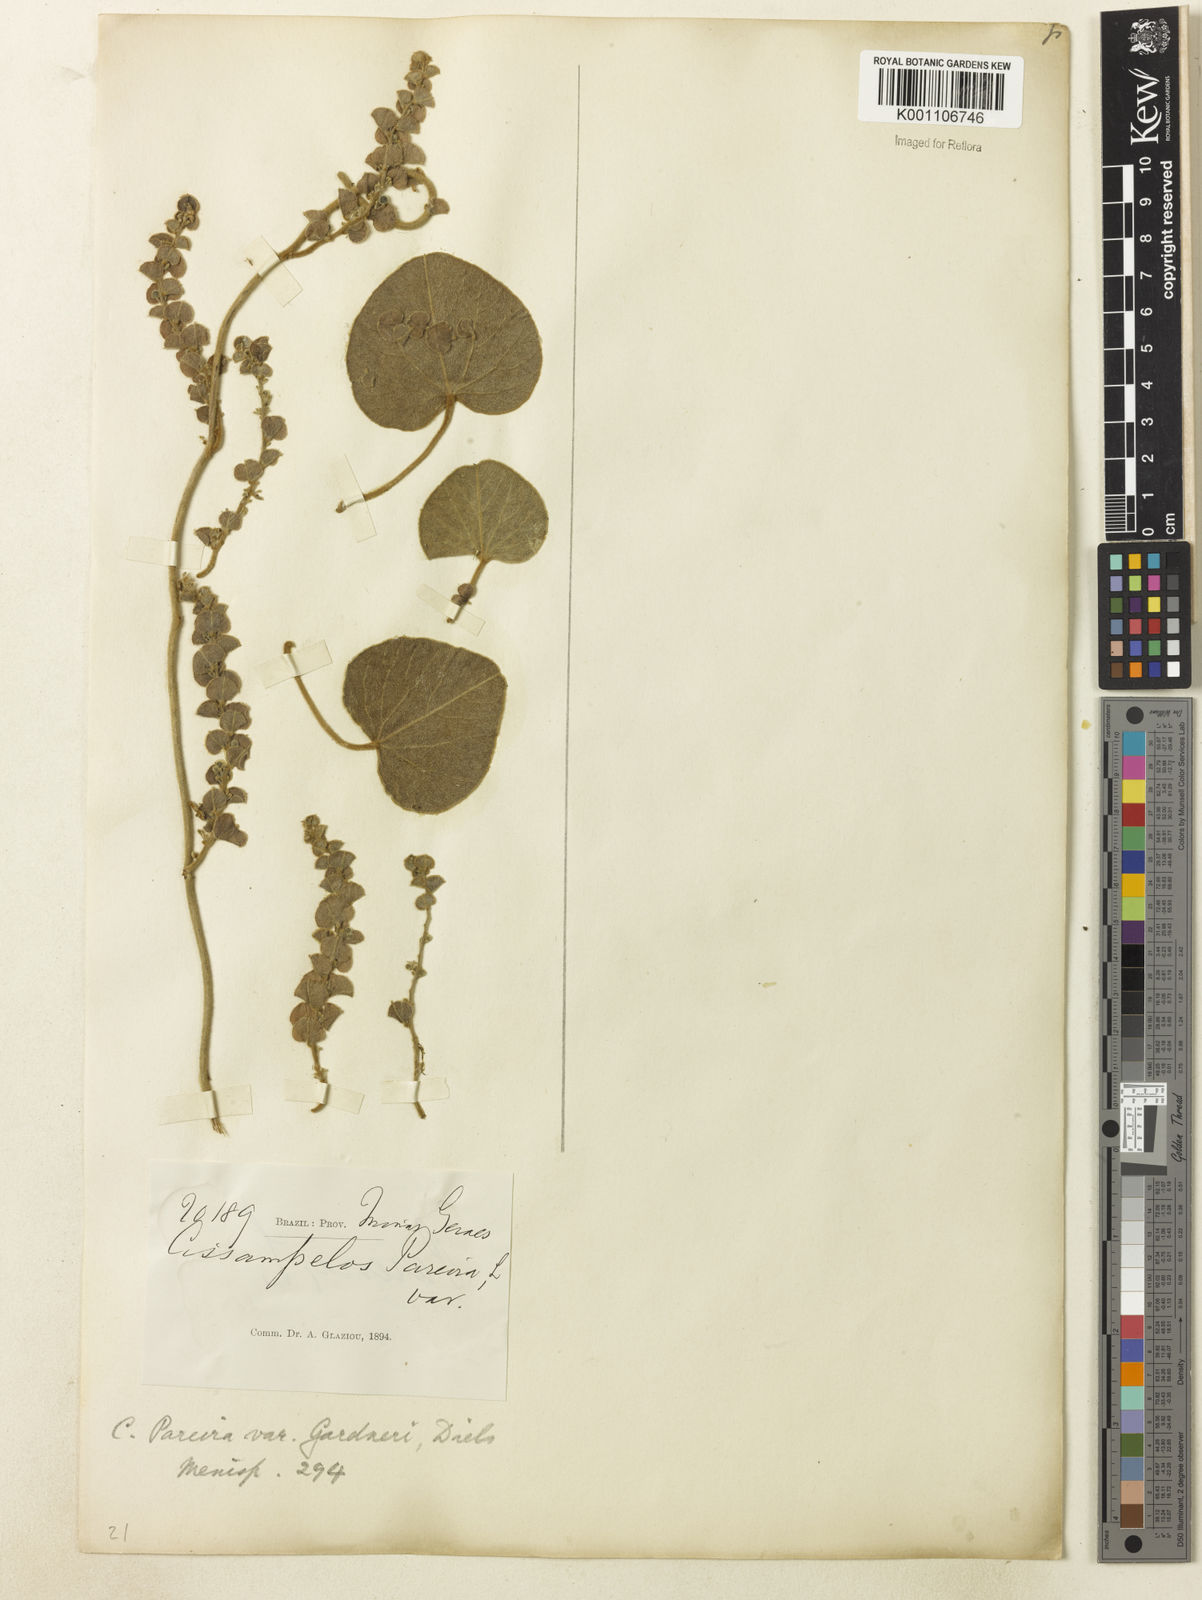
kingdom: Plantae
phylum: Tracheophyta
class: Magnoliopsida
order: Ranunculales
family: Menispermaceae
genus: Cissampelos
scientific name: Cissampelos pareira
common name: Velvetleaf
